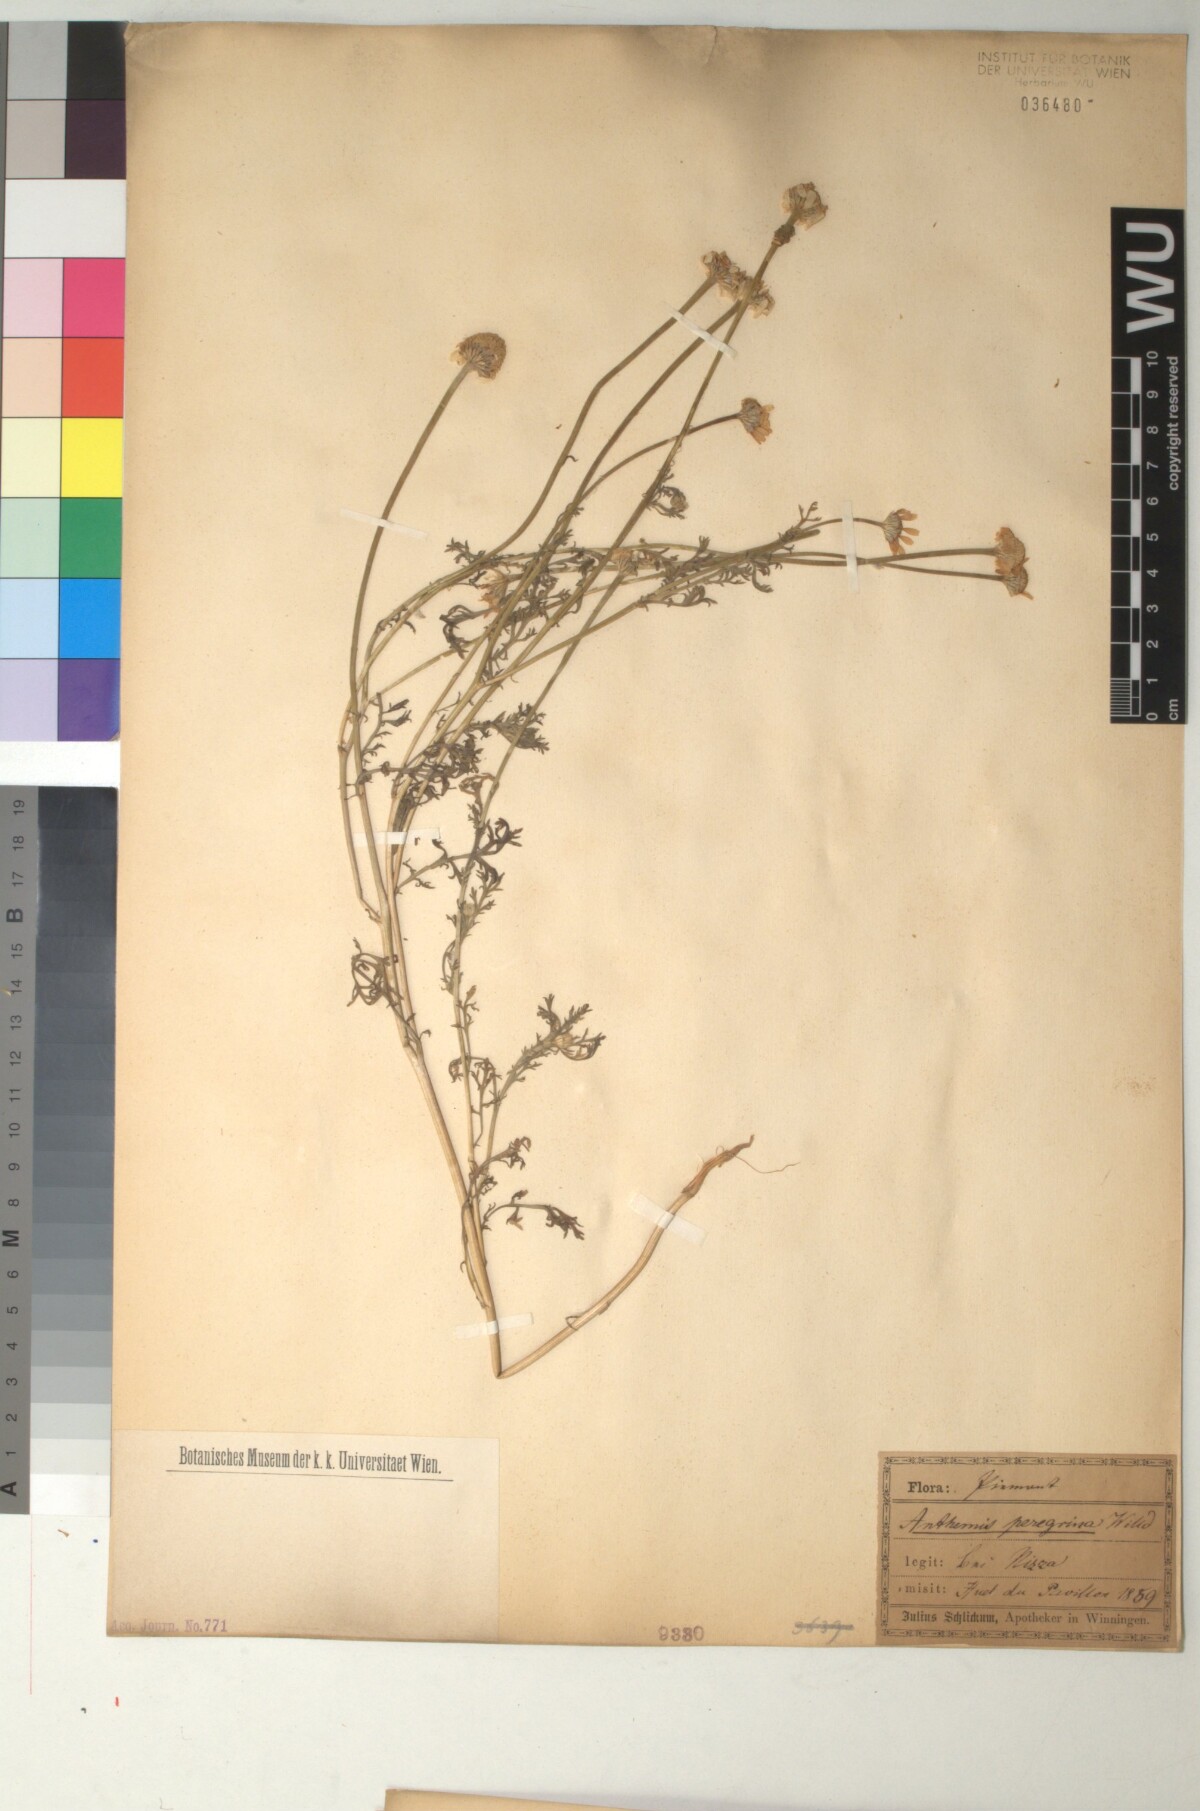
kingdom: Plantae
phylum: Tracheophyta
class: Magnoliopsida
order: Asterales
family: Asteraceae
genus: Anthemis
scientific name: Anthemis tomentosa
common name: Woolly chamomile
